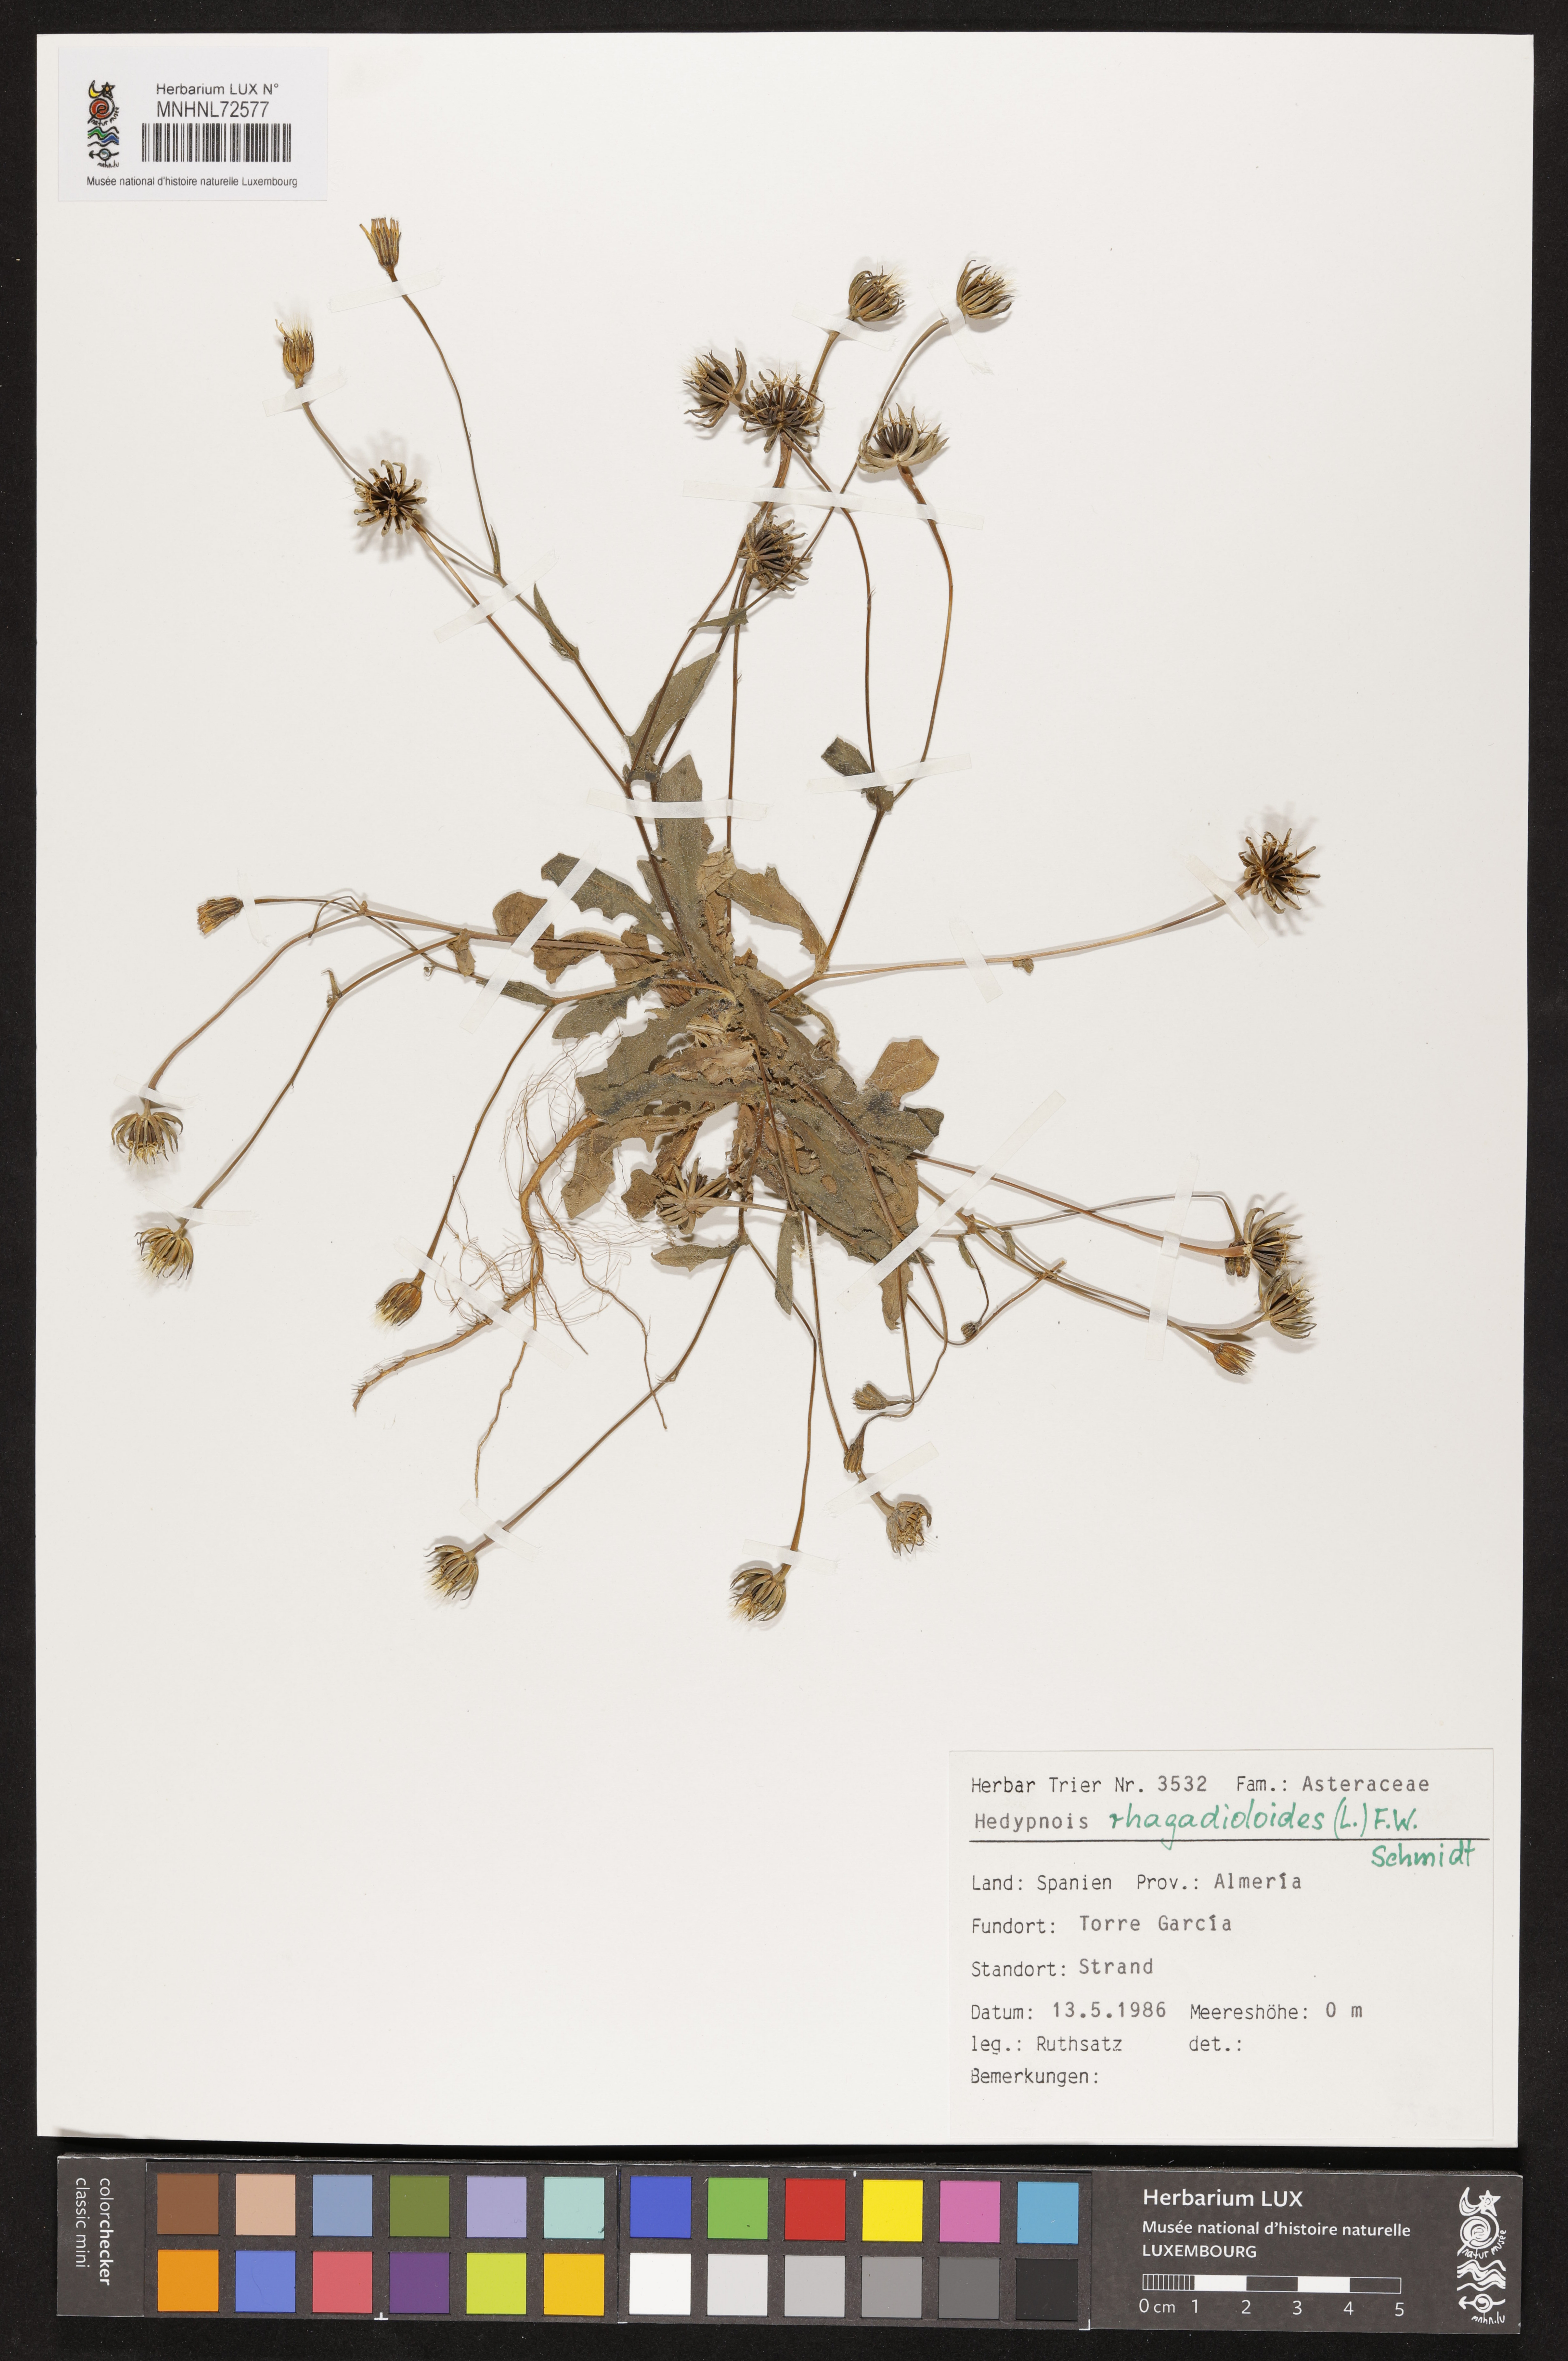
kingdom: Plantae
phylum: Tracheophyta
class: Magnoliopsida
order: Asterales
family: Asteraceae
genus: Hedypnois
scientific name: Hedypnois rhagadioloides
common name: Cretan weed
